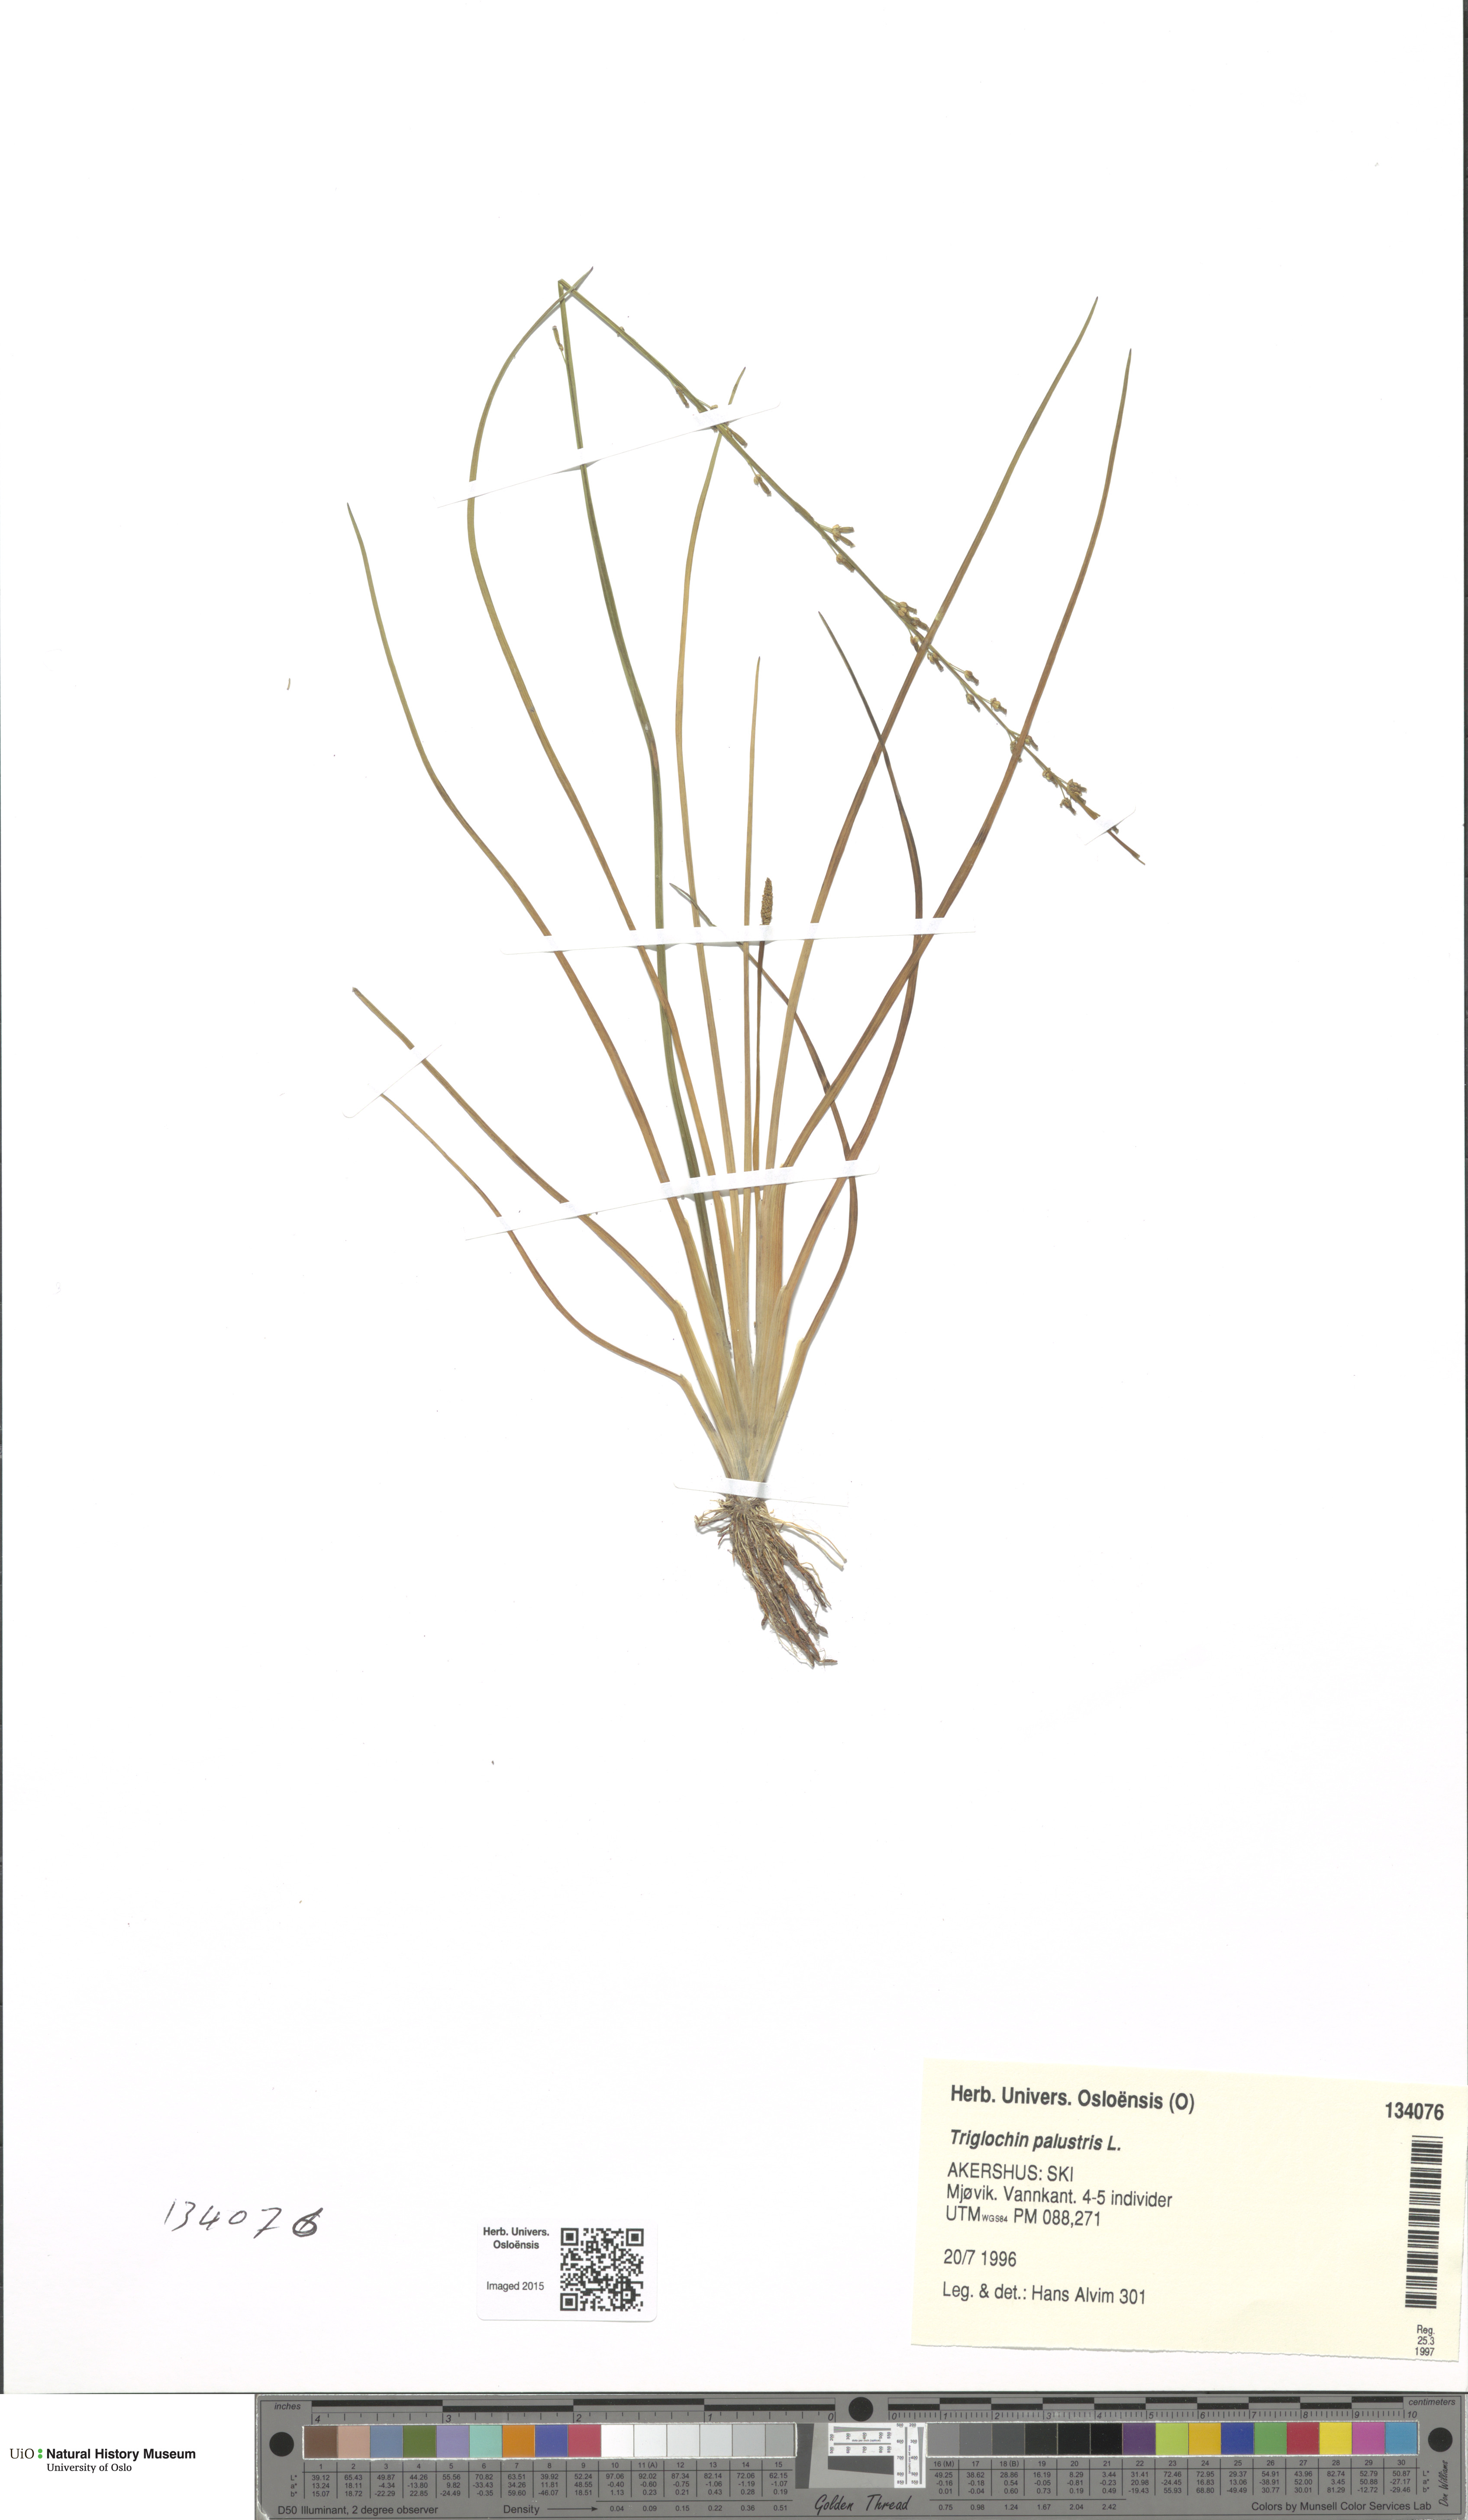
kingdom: Plantae
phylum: Tracheophyta
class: Liliopsida
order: Alismatales
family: Juncaginaceae
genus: Triglochin
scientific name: Triglochin palustris
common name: Marsh arrowgrass
